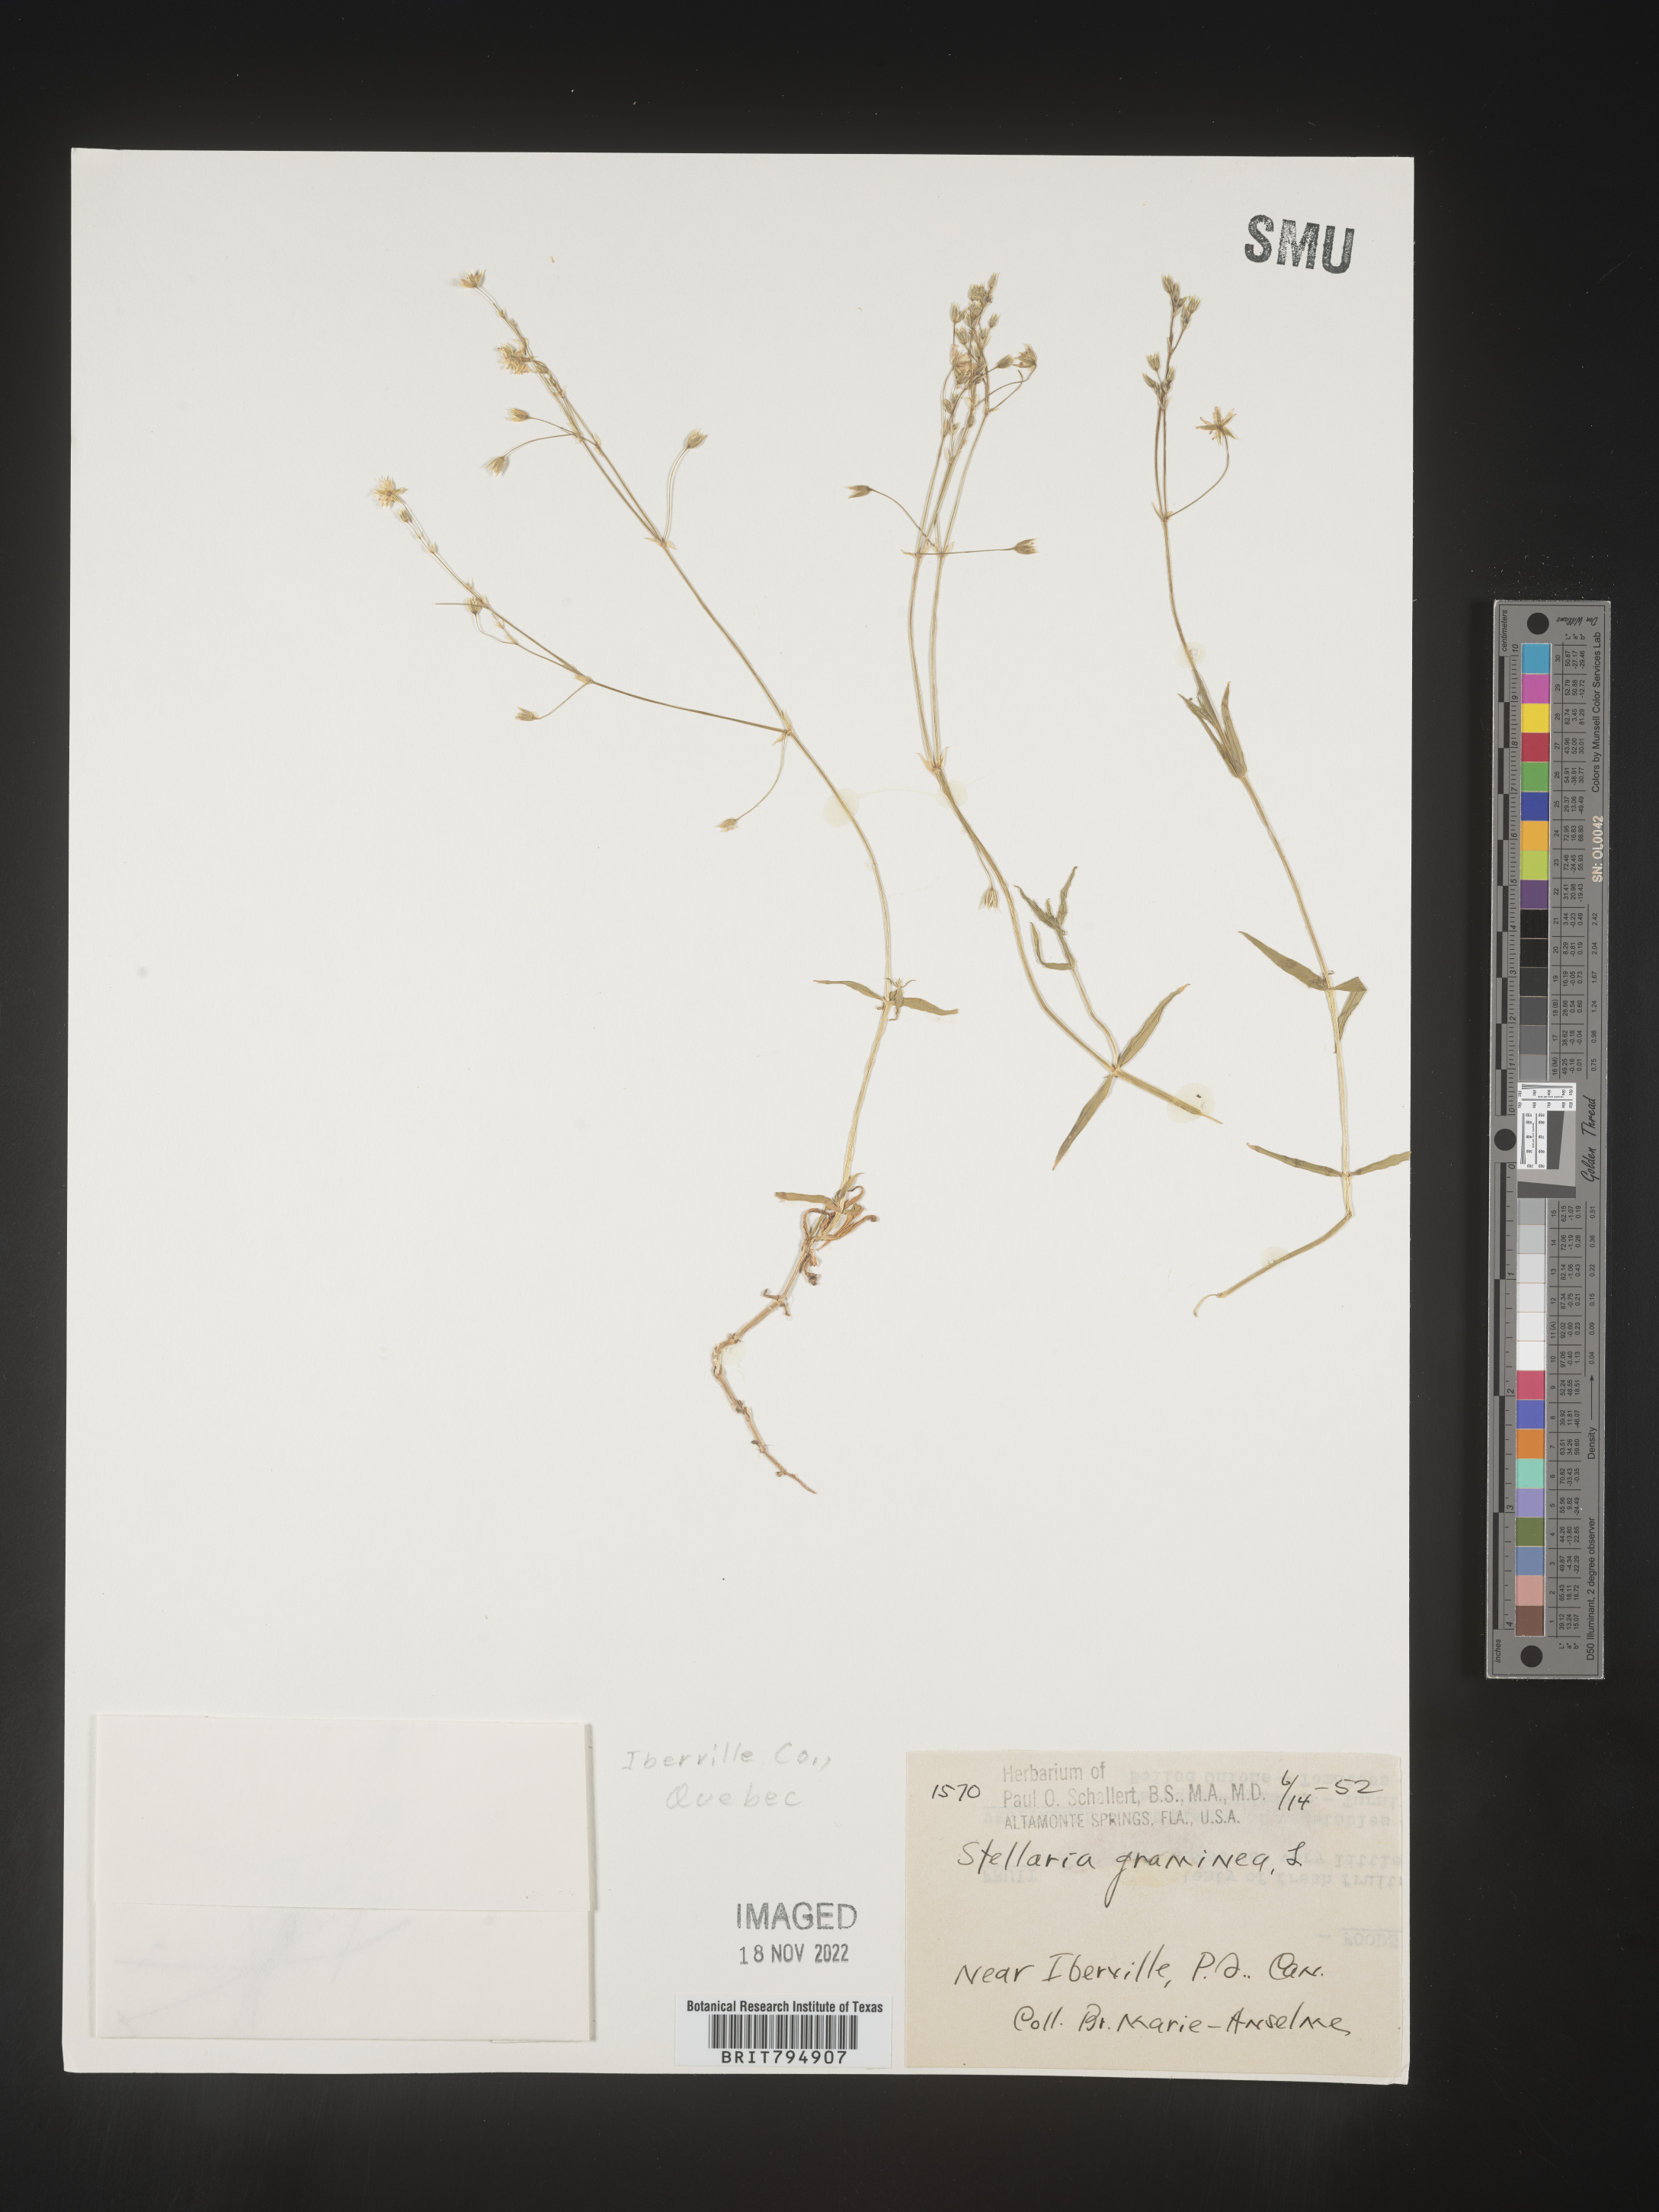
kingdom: Plantae
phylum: Tracheophyta
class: Magnoliopsida
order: Caryophyllales
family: Caryophyllaceae
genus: Stellaria
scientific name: Stellaria graminea
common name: Grass-like starwort
